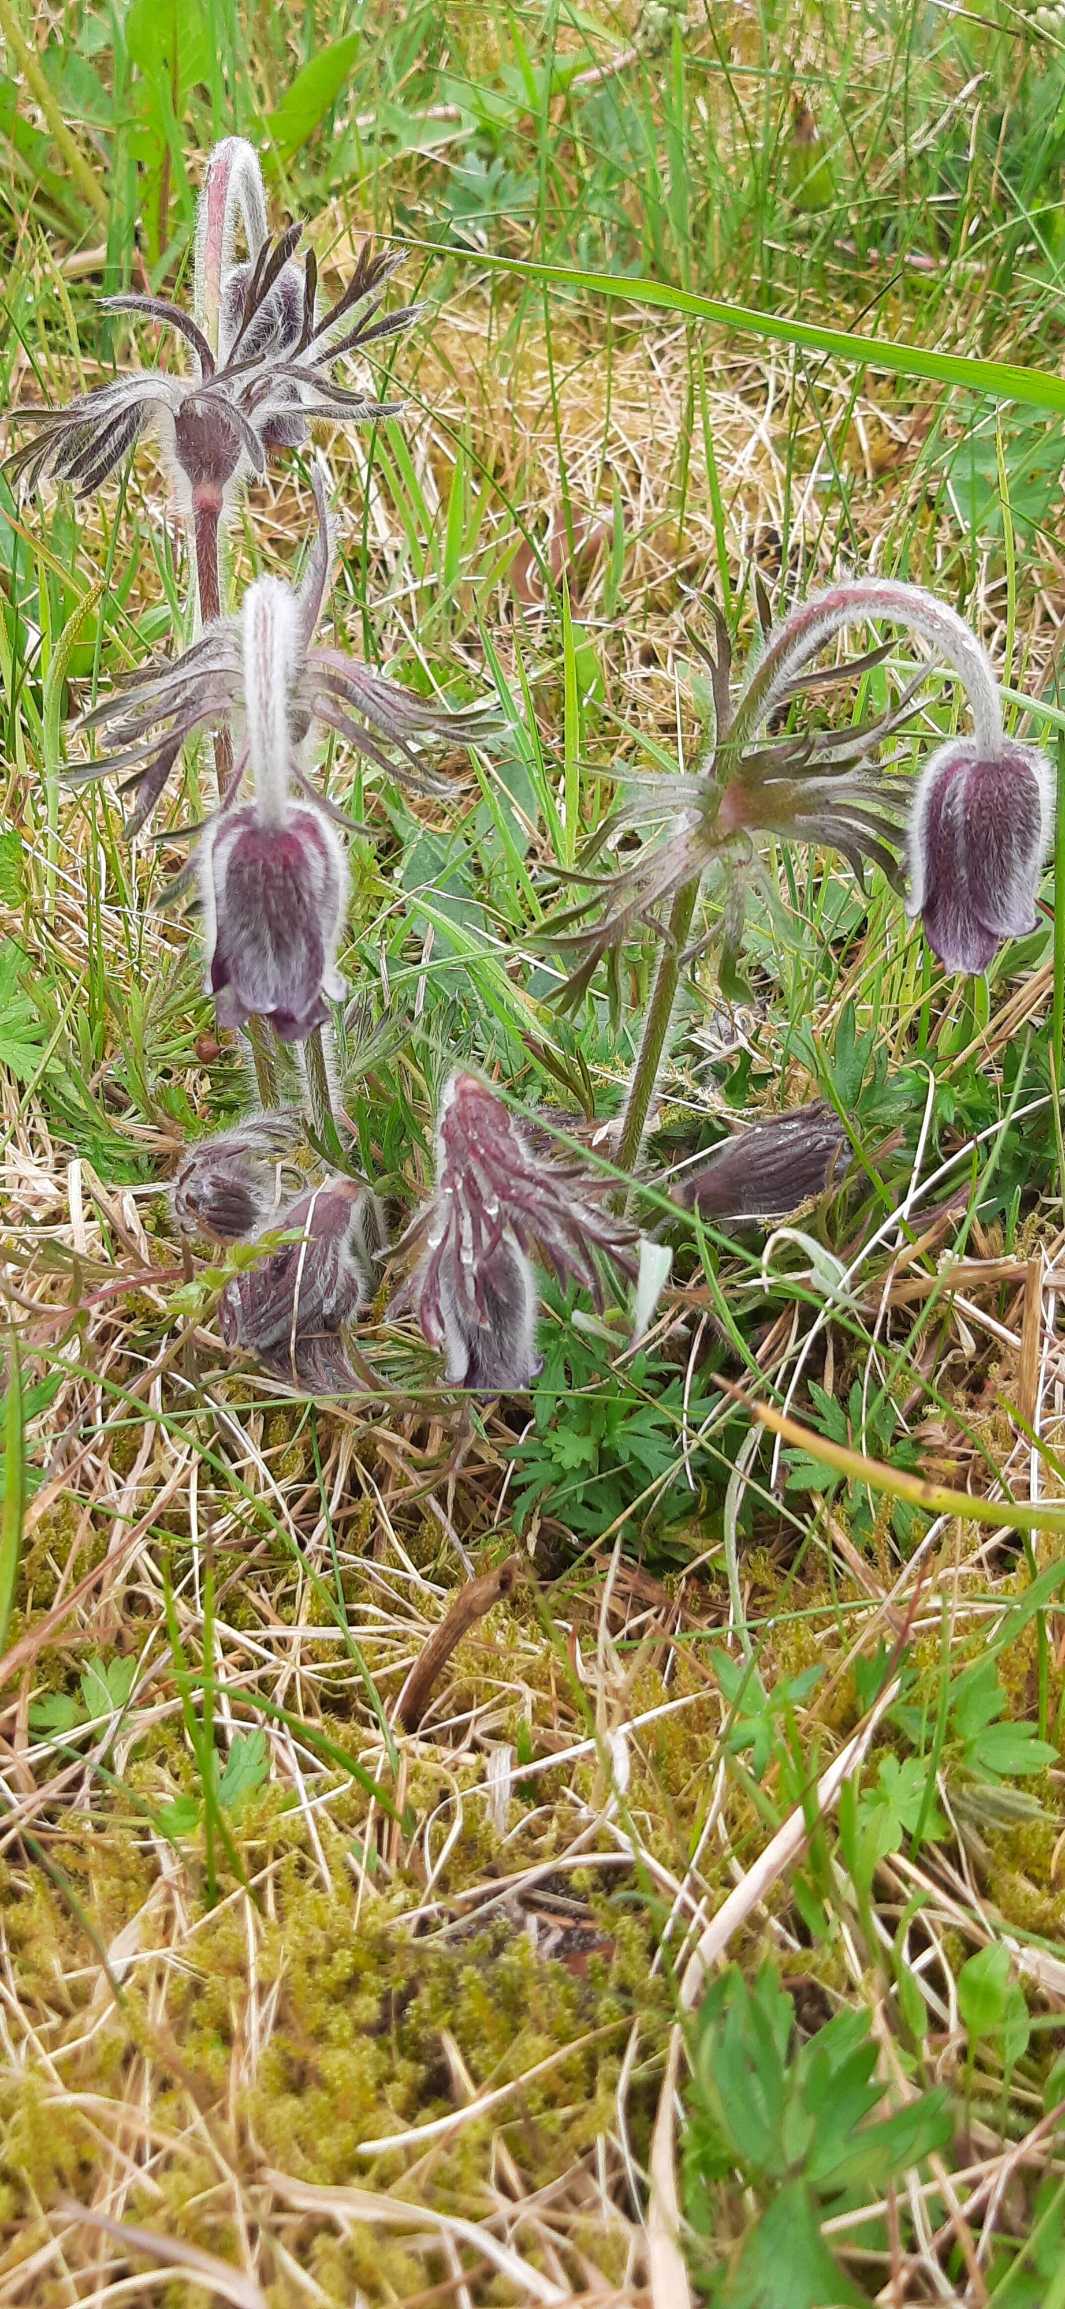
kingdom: Plantae
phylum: Tracheophyta
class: Magnoliopsida
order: Ranunculales
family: Ranunculaceae
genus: Pulsatilla
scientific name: Pulsatilla pratensis
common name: Nikkende kobjælde
